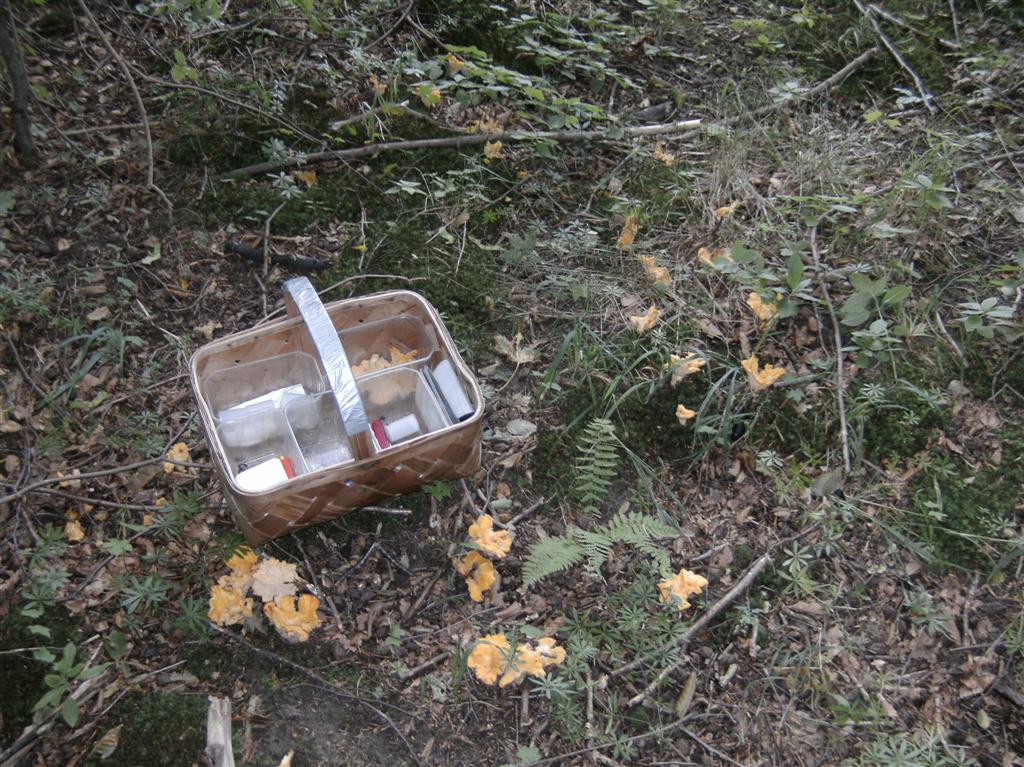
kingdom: Fungi
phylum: Basidiomycota
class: Agaricomycetes
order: Cantharellales
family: Hydnaceae
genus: Cantharellus
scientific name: Cantharellus pallens
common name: bleg kantarel
